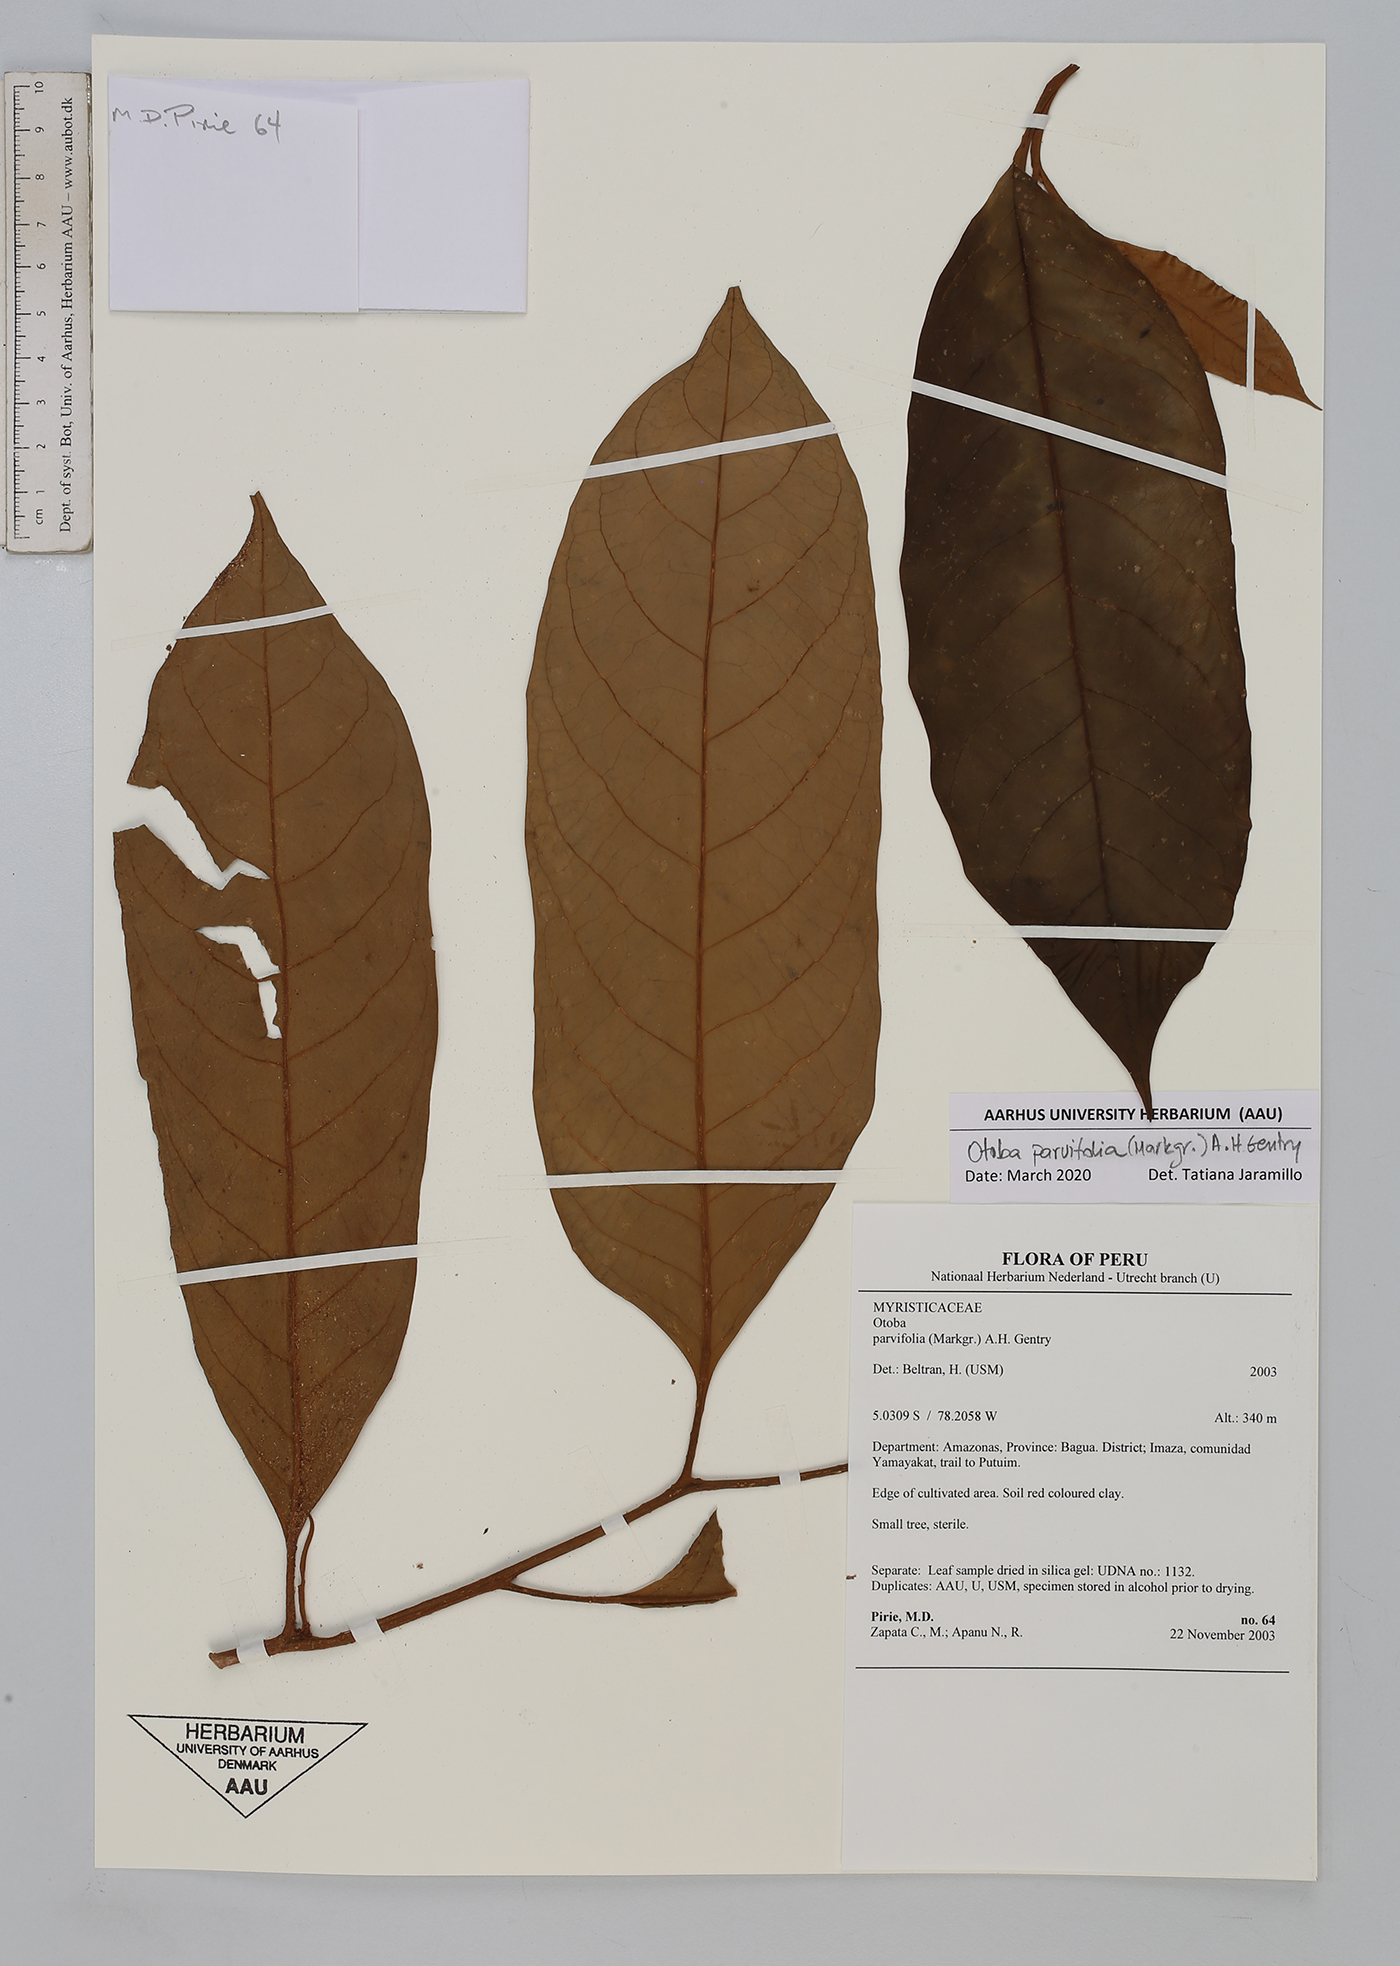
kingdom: Plantae
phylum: Tracheophyta
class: Magnoliopsida
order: Magnoliales
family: Myristicaceae
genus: Otoba
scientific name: Otoba parvifolia
